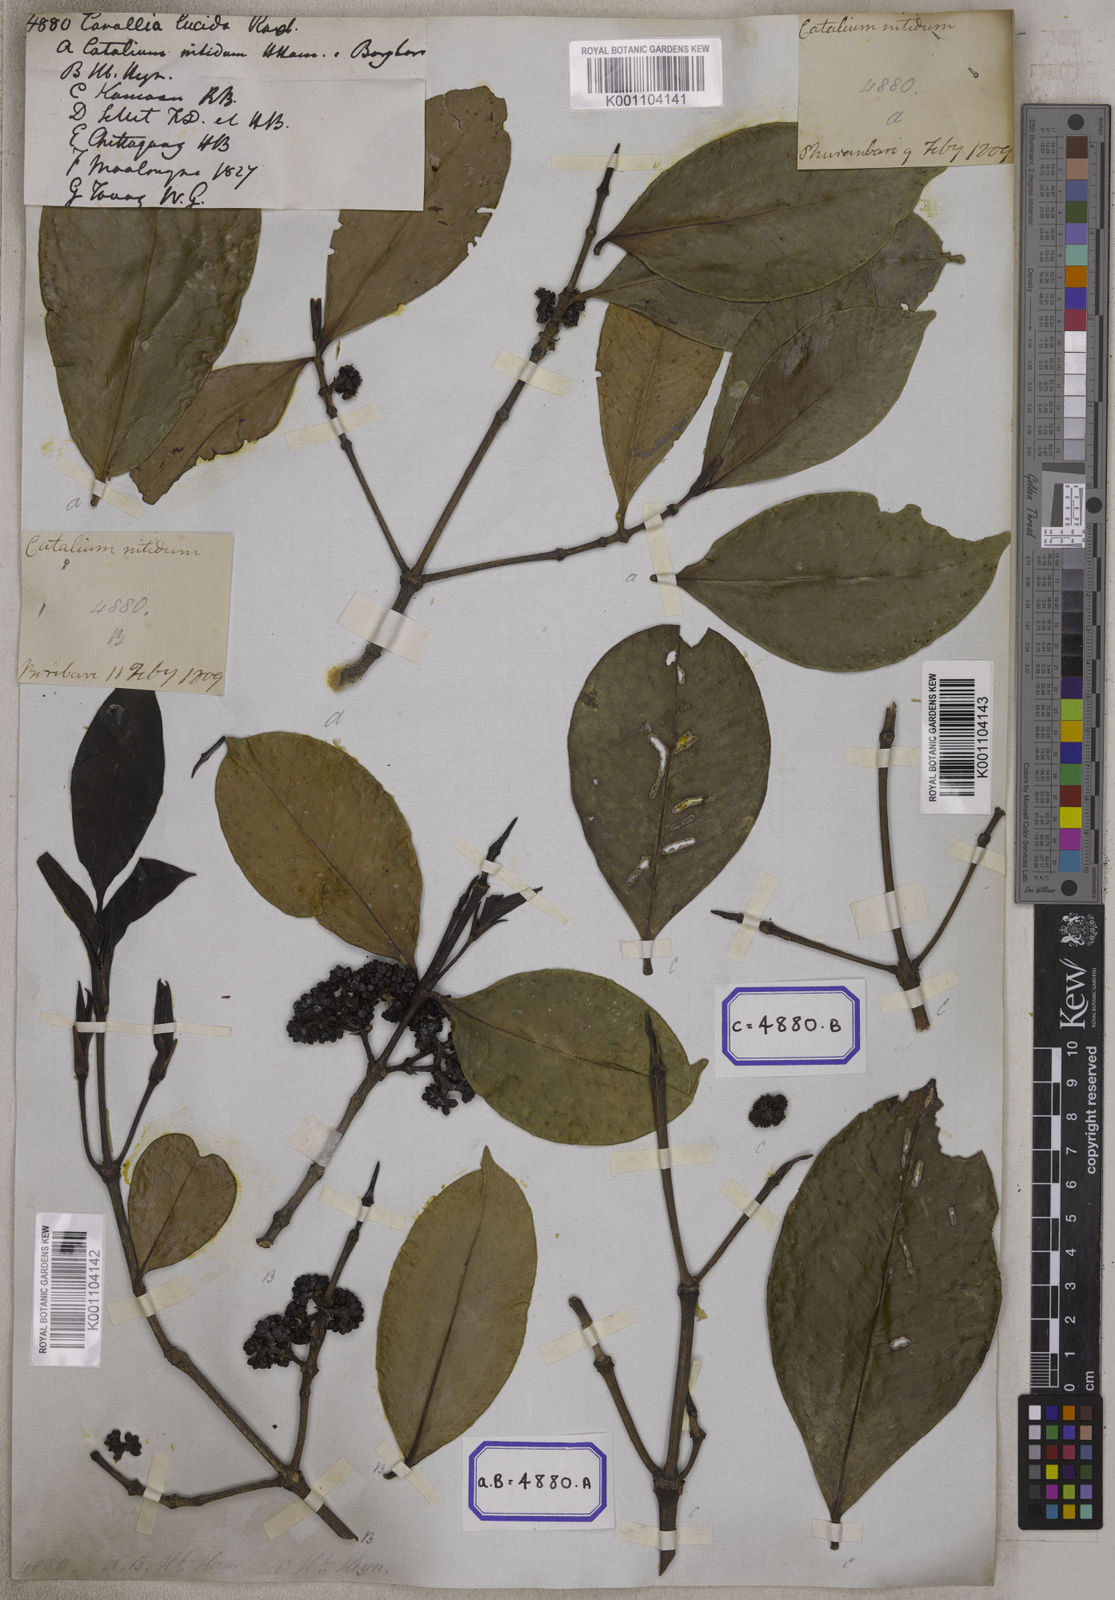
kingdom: Plantae
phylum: Tracheophyta
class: Magnoliopsida
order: Malpighiales
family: Rhizophoraceae
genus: Carallia
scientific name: Carallia brachiata
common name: Carallawood
